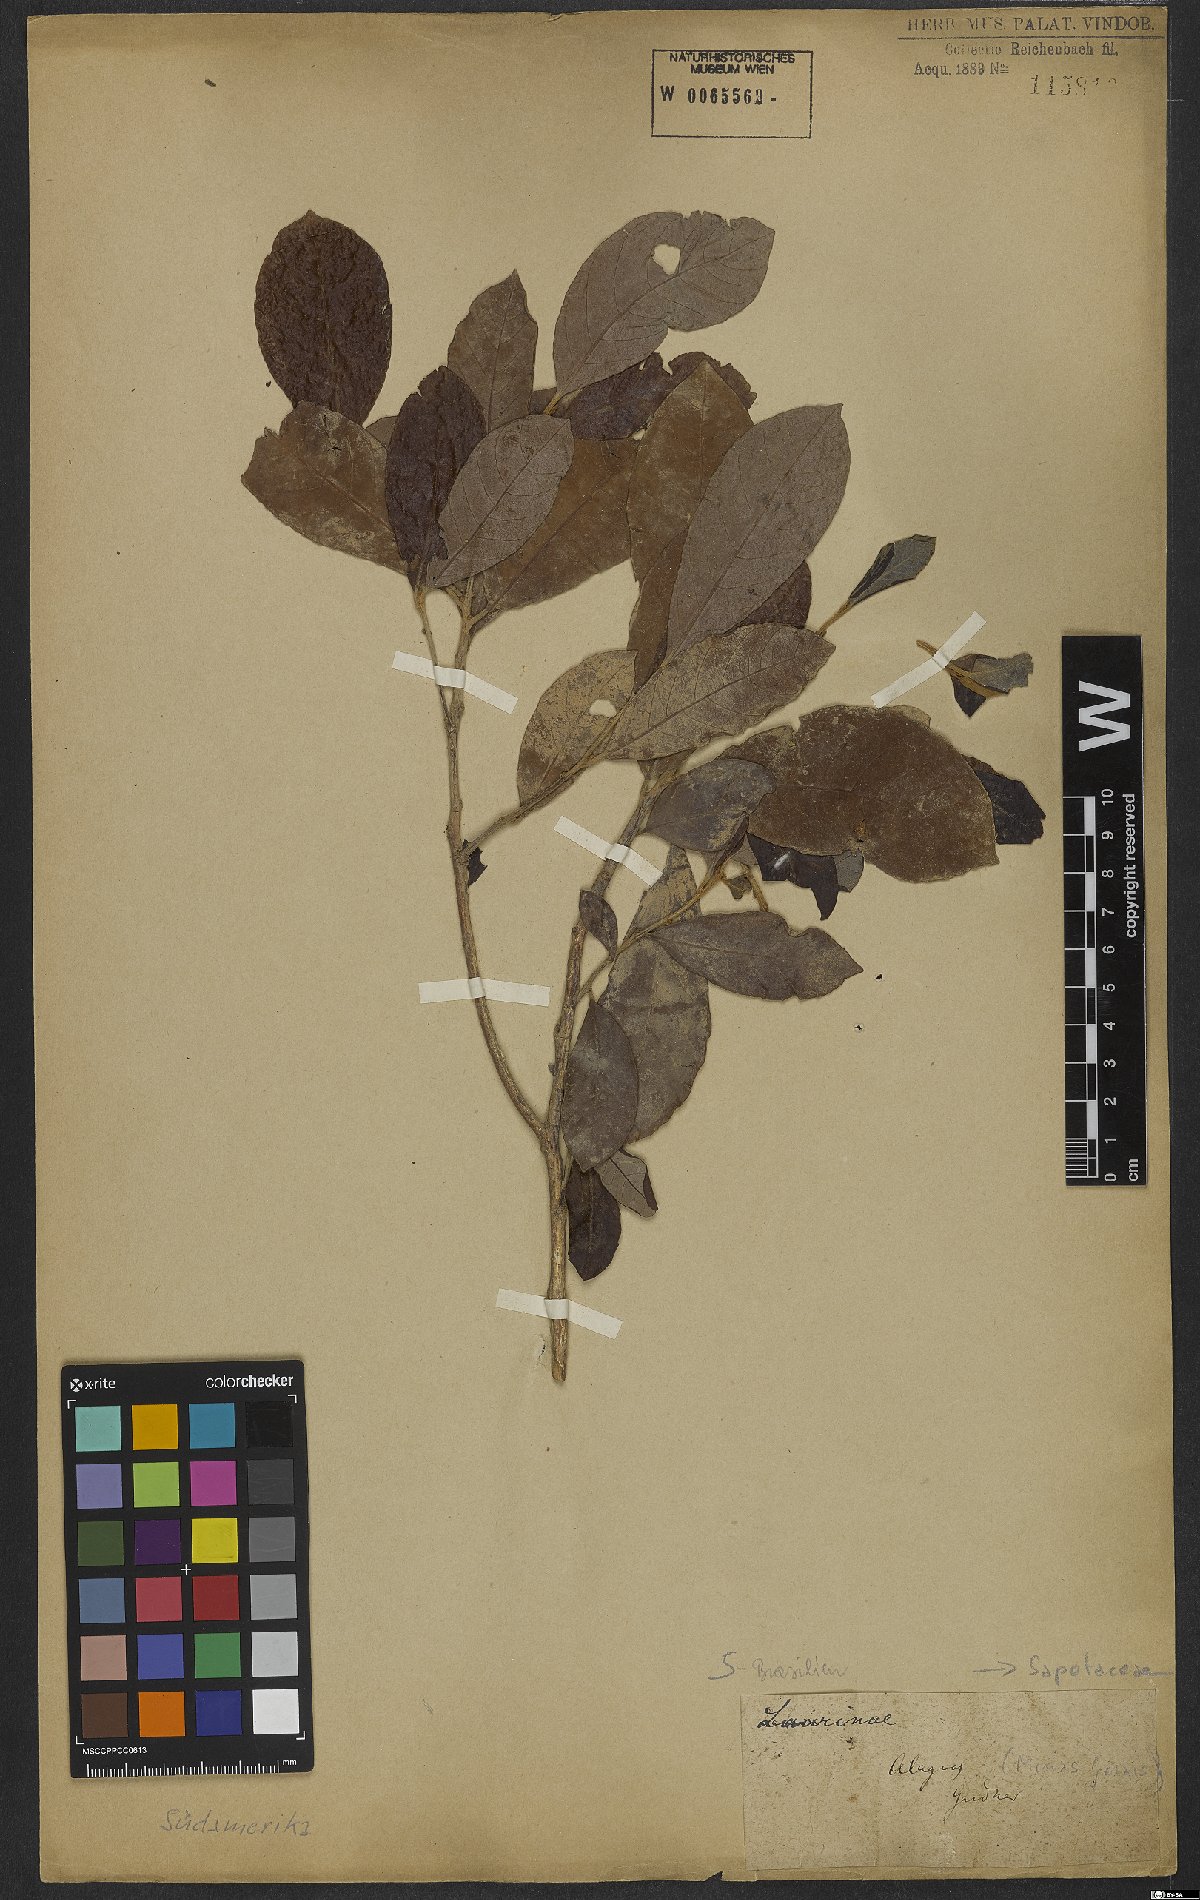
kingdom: Plantae
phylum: Tracheophyta
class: Magnoliopsida
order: Ericales
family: Sapotaceae
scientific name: Sapotaceae
